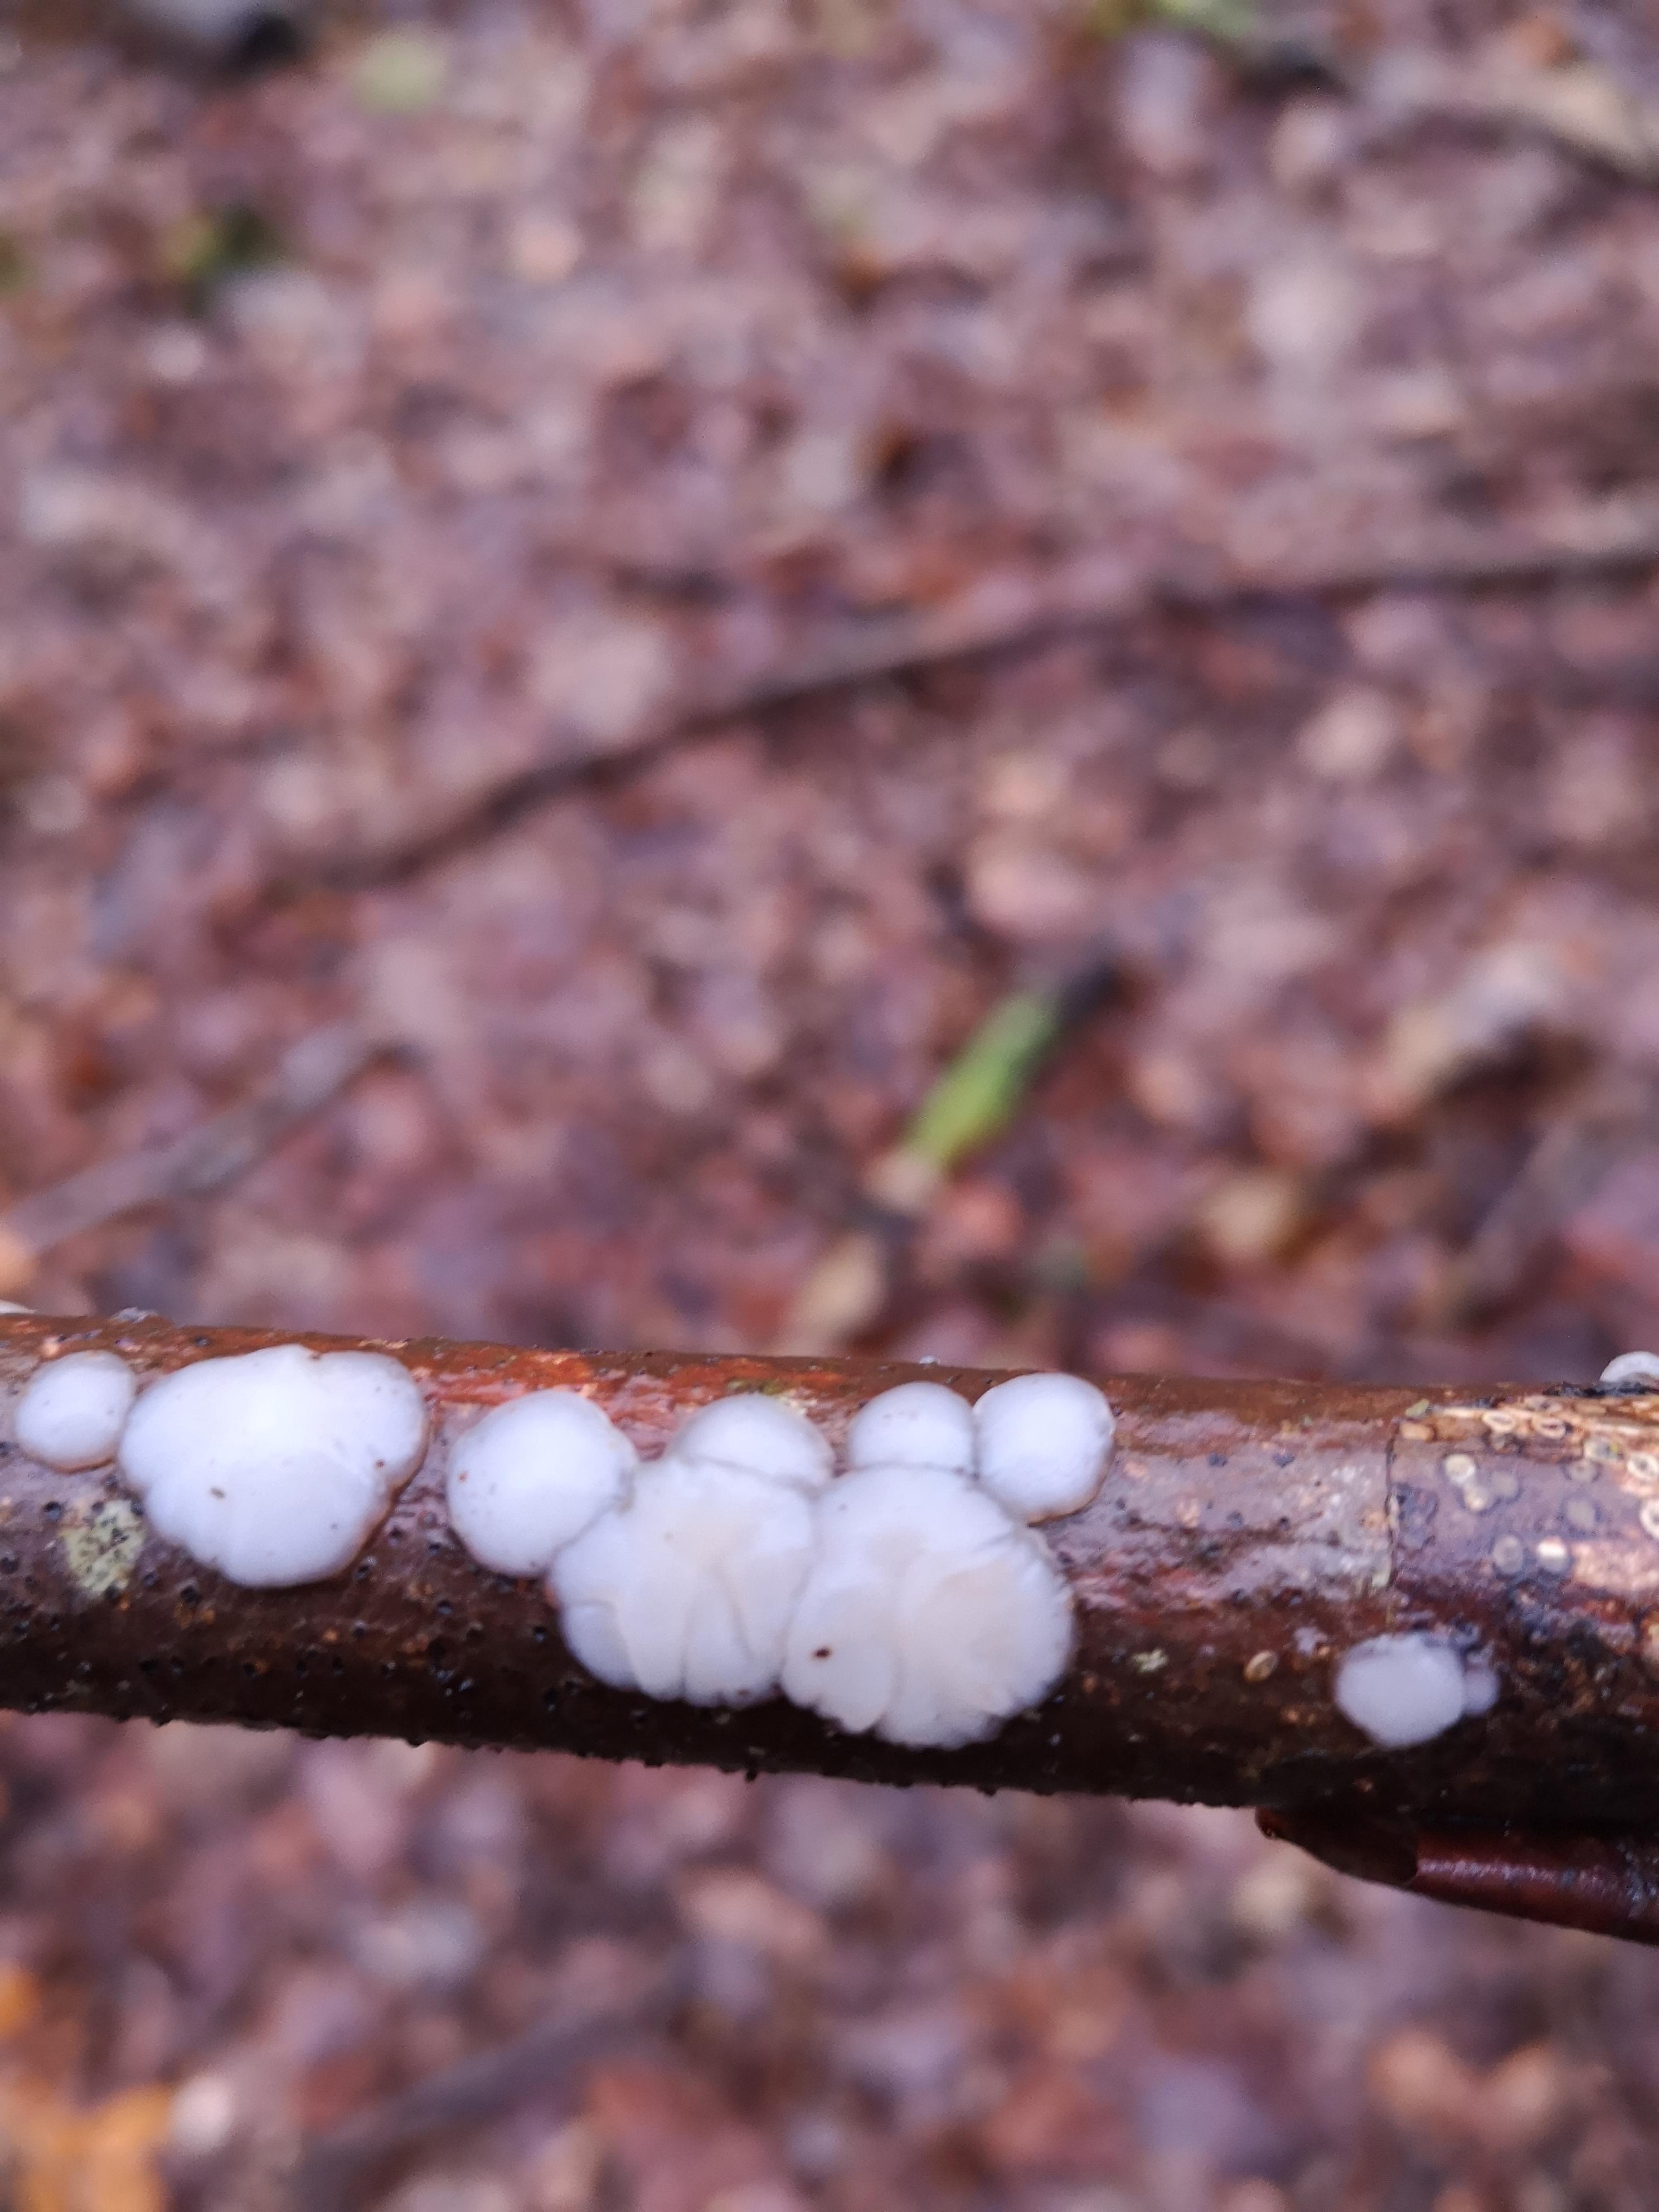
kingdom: Fungi
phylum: Basidiomycota
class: Agaricomycetes
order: Auriculariales
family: Auriculariaceae
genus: Exidia
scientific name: Exidia thuretiana
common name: hvidlig bævretop
